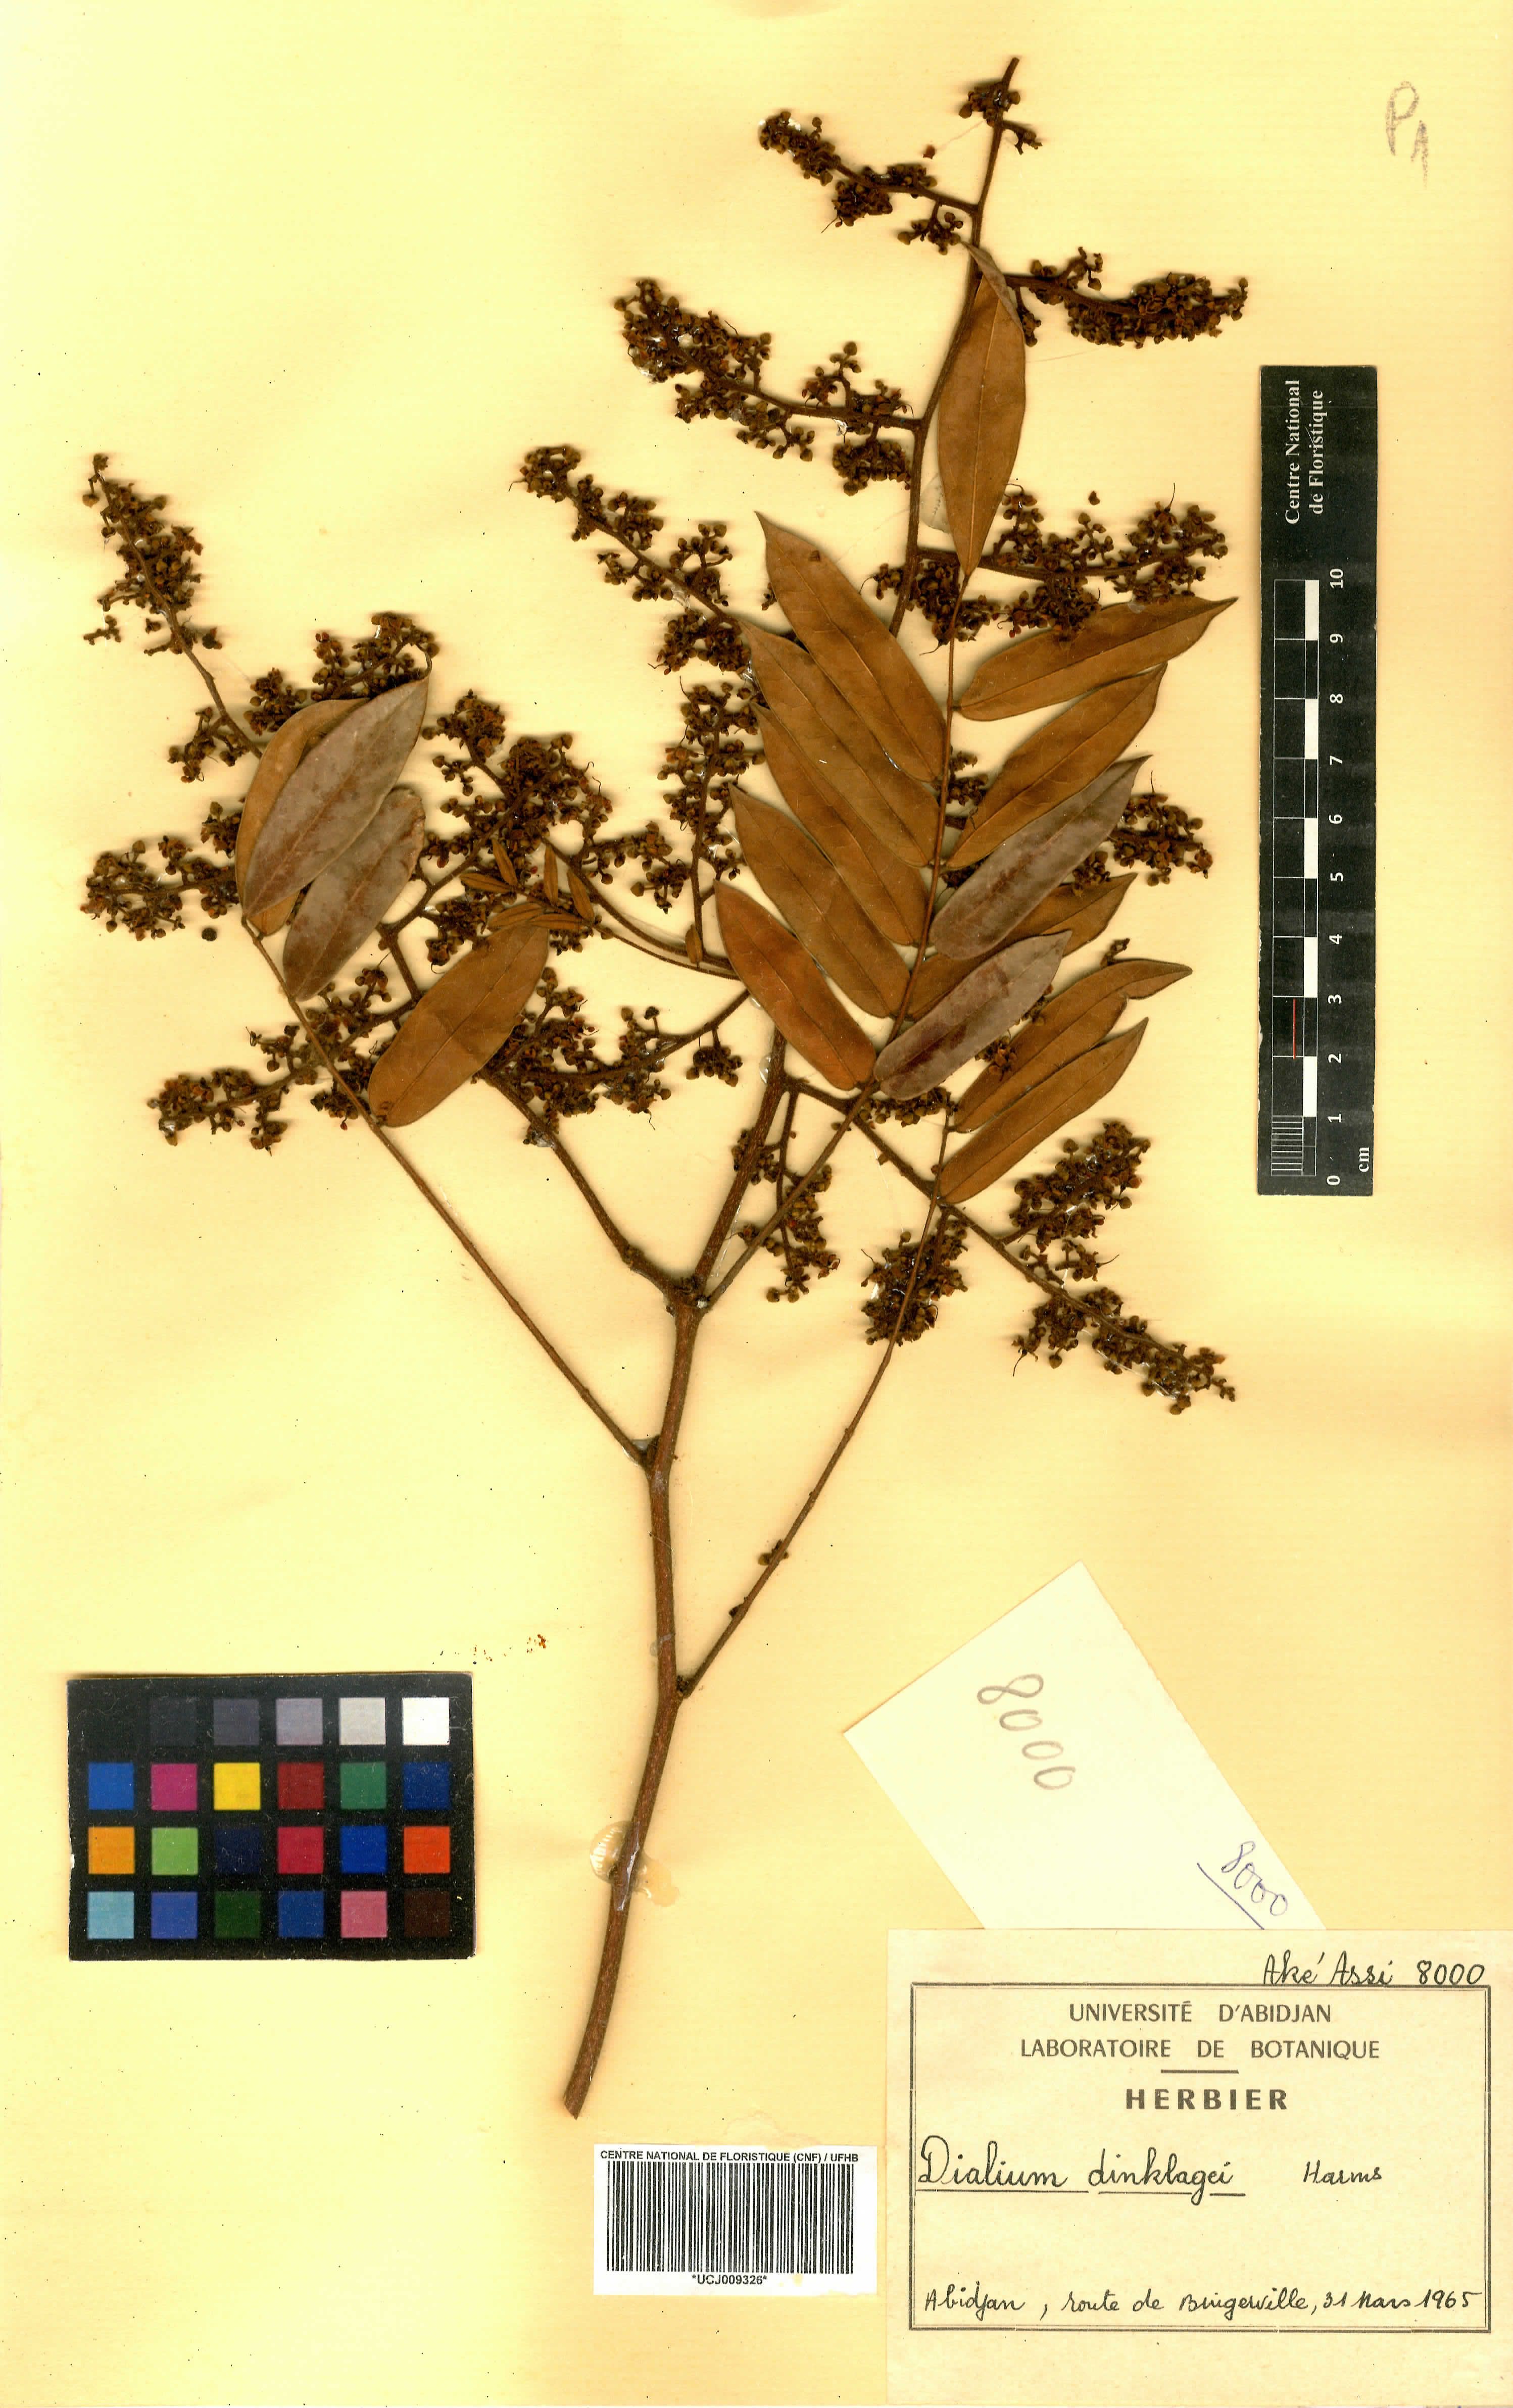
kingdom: Plantae
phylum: Tracheophyta
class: Magnoliopsida
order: Fabales
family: Fabaceae
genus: Dialium
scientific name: Dialium dinklagei
